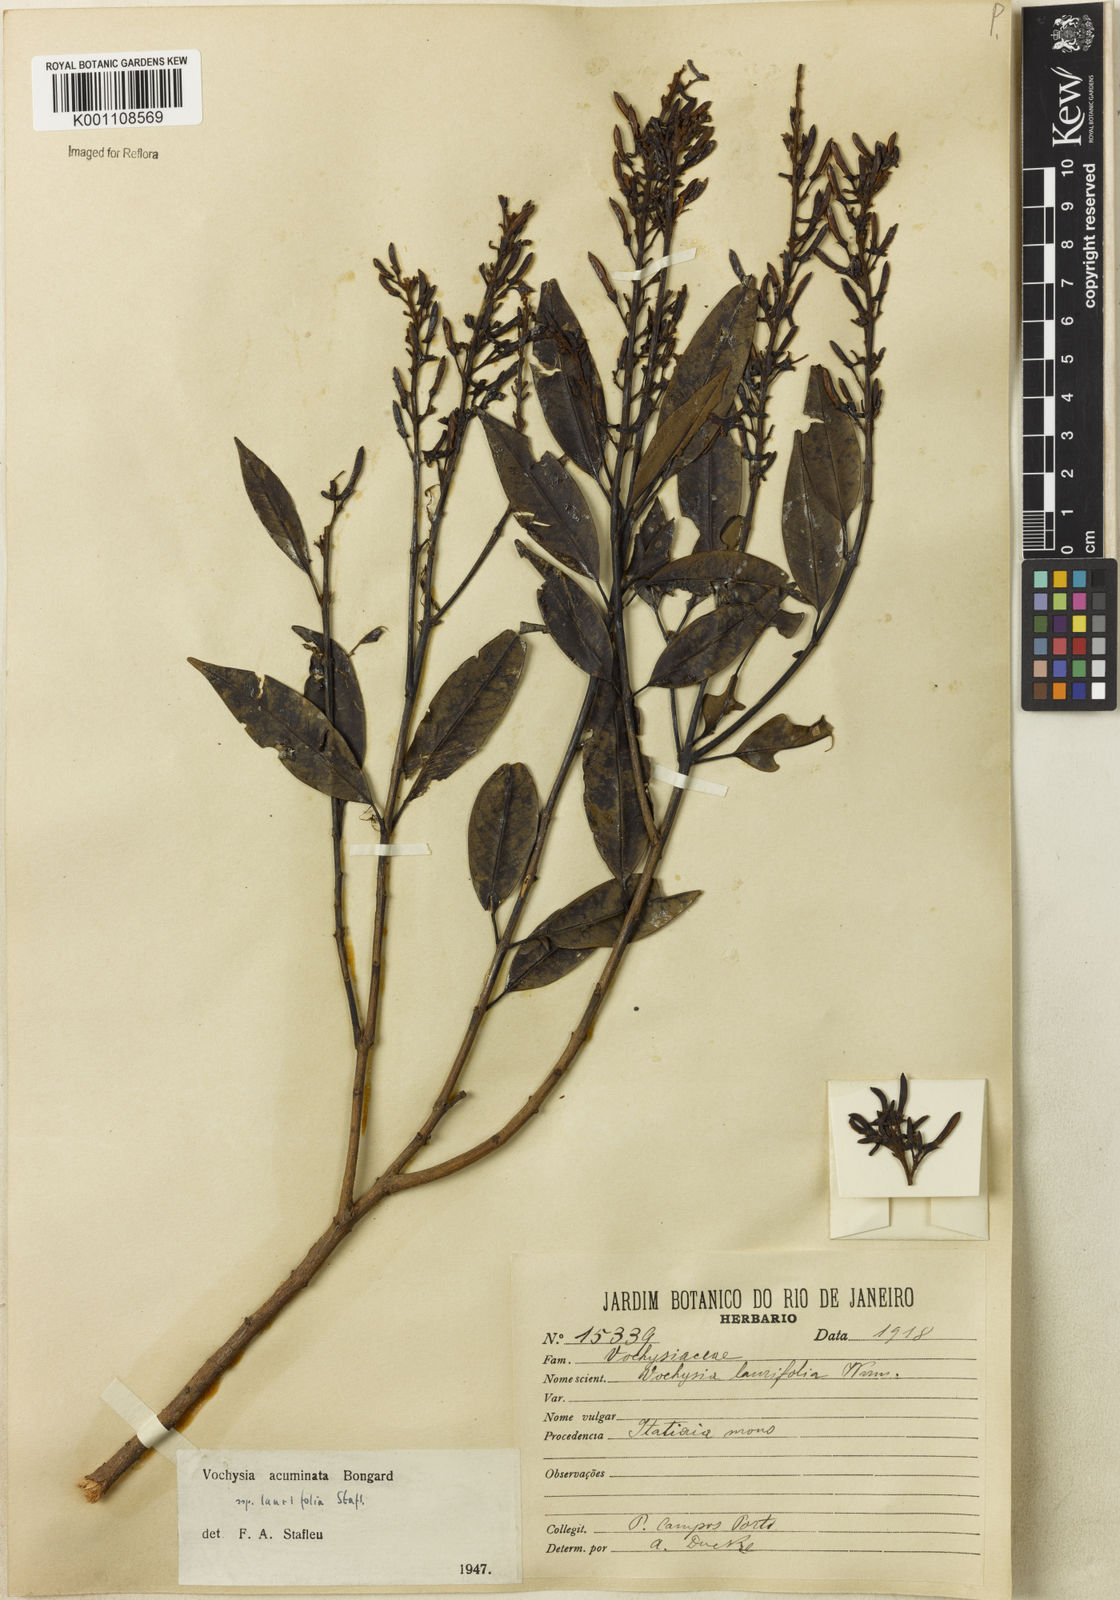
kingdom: Plantae
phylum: Tracheophyta
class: Magnoliopsida
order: Myrtales
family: Vochysiaceae
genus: Vochysia
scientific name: Vochysia laurifolia
